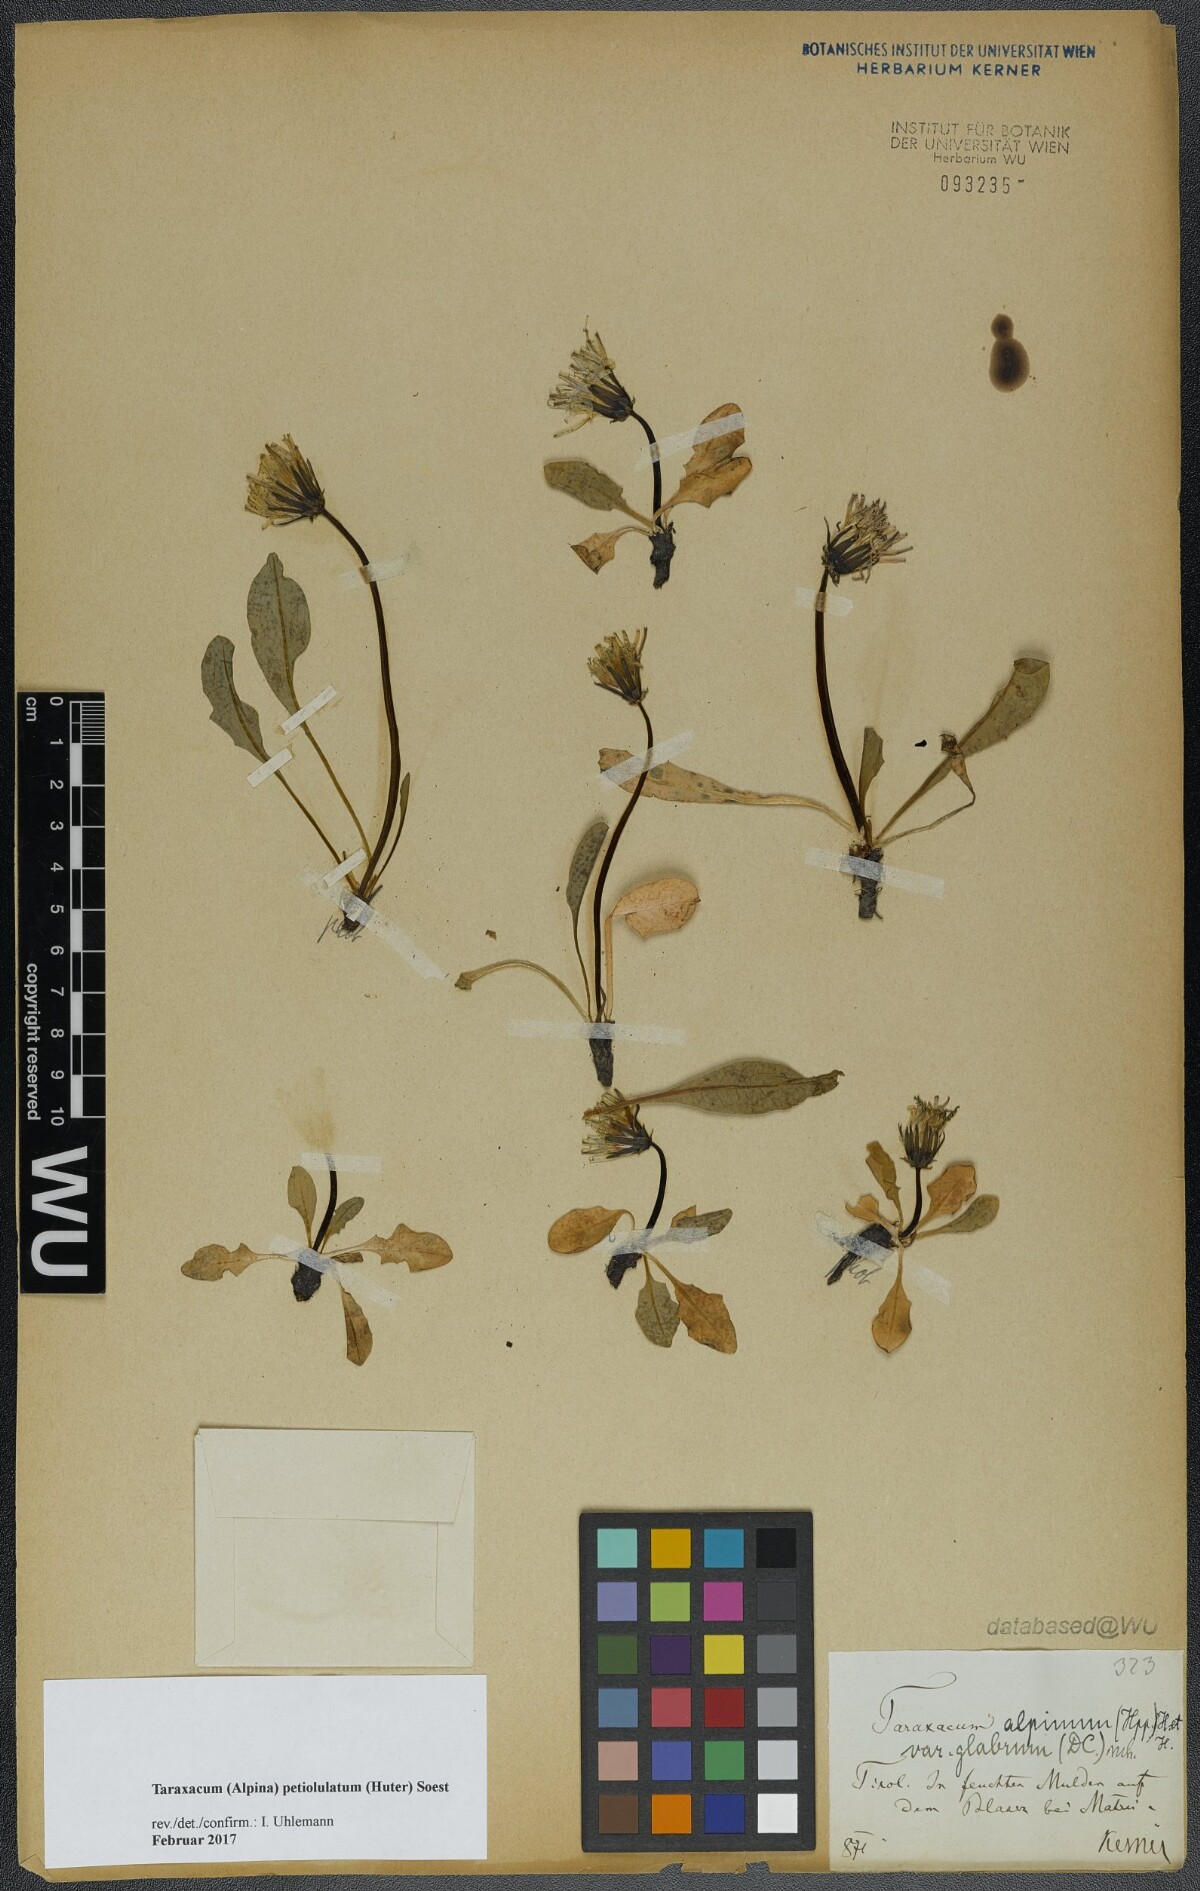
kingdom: Plantae
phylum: Tracheophyta
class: Magnoliopsida
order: Asterales
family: Asteraceae
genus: Taraxacum
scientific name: Taraxacum petiolulatum
